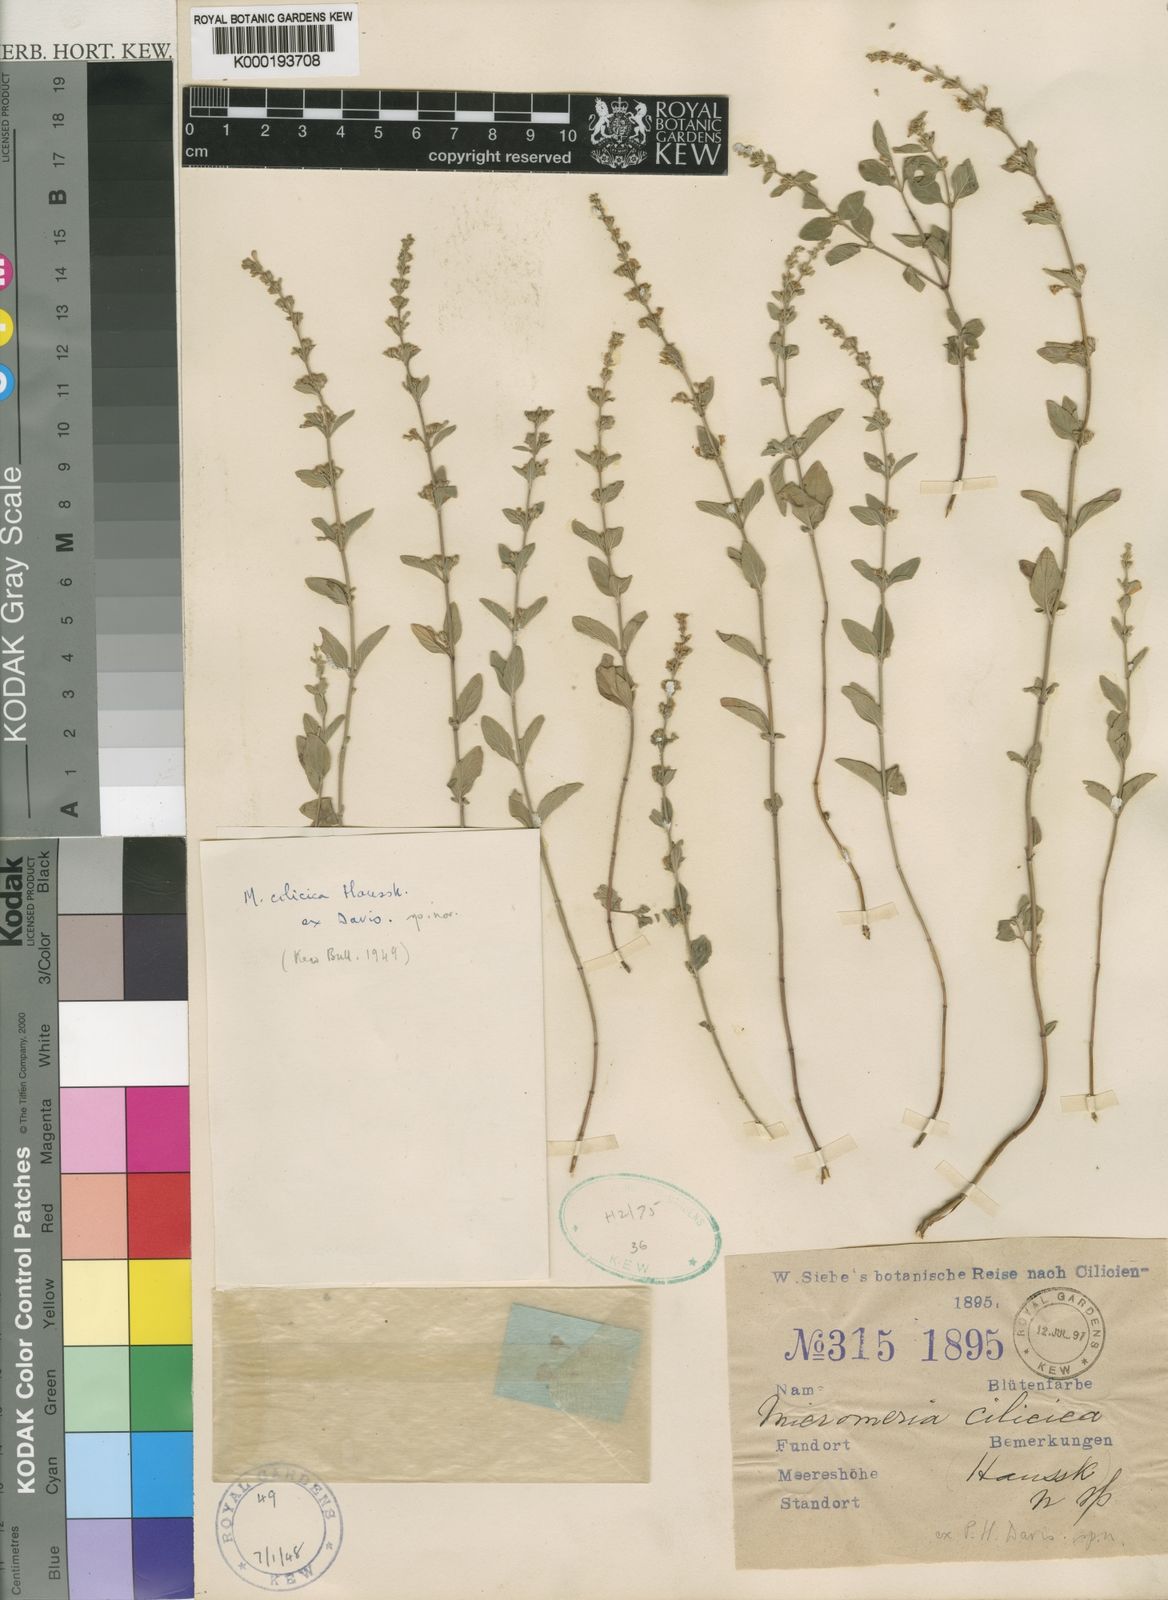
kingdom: Plantae
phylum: Tracheophyta
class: Magnoliopsida
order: Lamiales
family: Lamiaceae
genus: Clinopodium
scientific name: Clinopodium cilicicum
